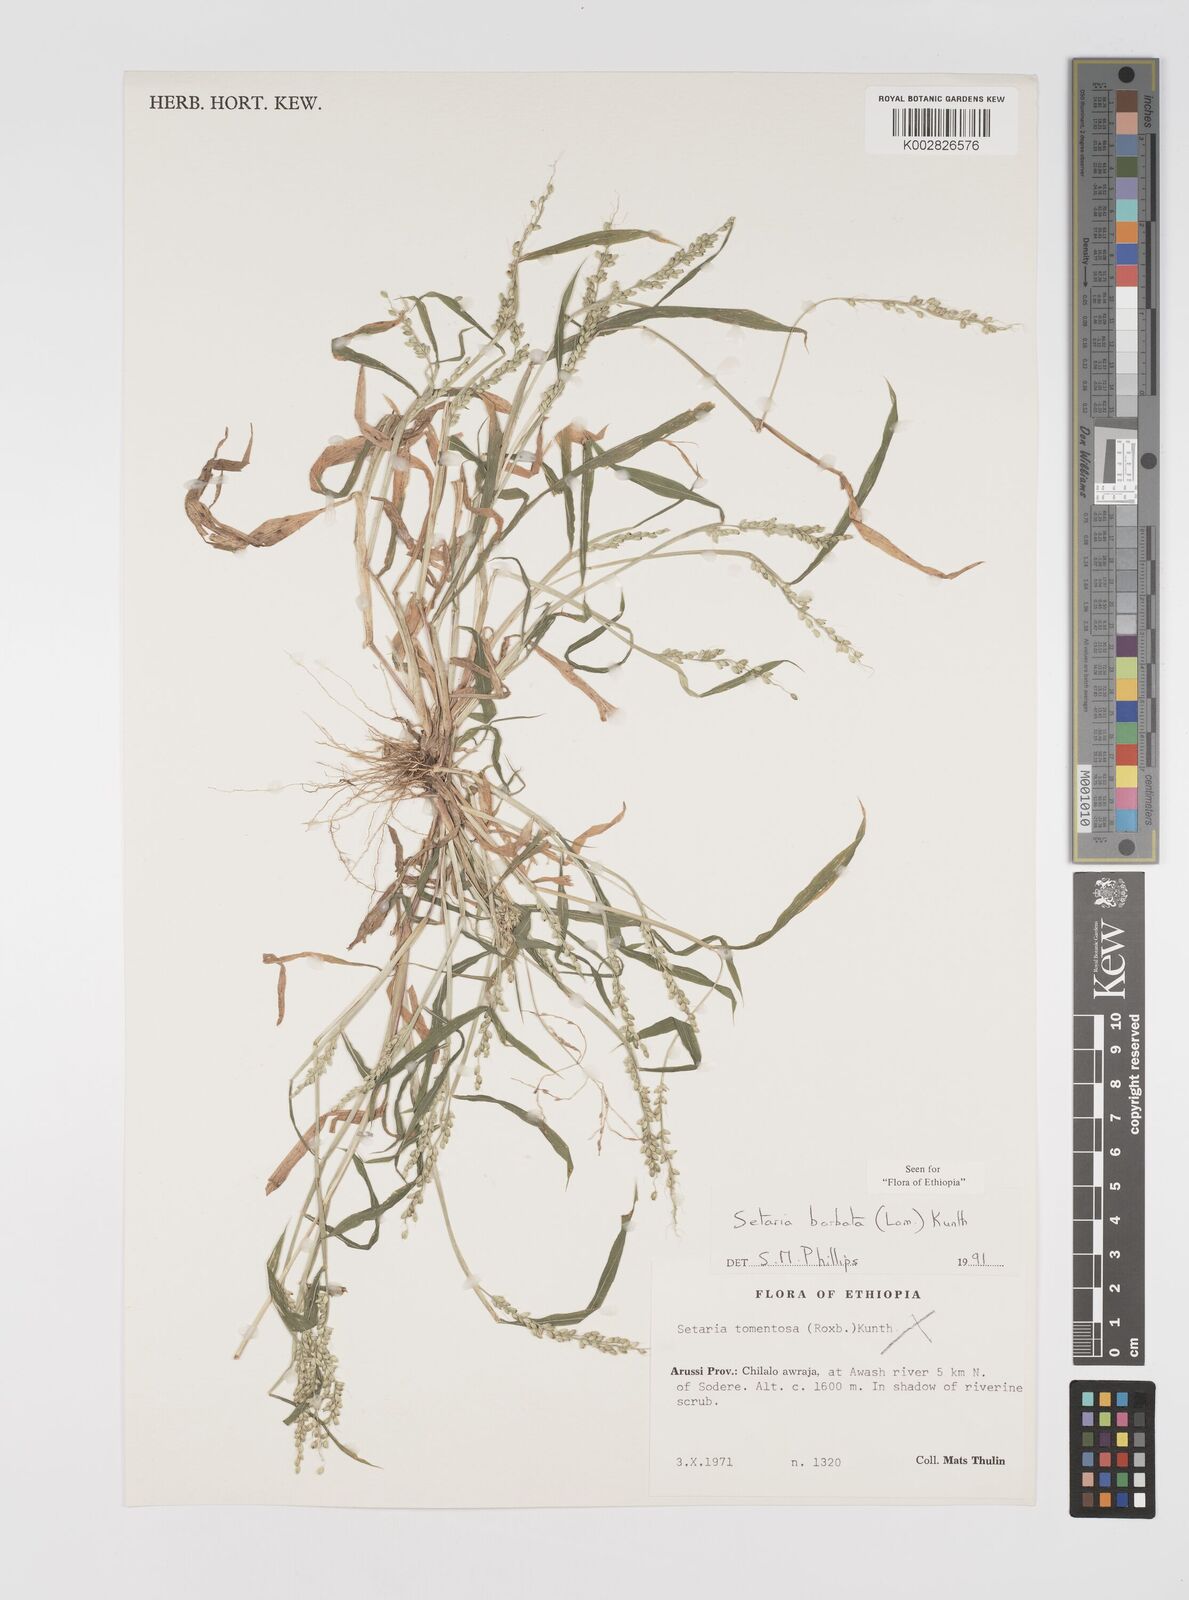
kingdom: Plantae
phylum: Tracheophyta
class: Liliopsida
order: Poales
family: Poaceae
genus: Setaria
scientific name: Setaria barbata
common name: East indian bristlegrass
